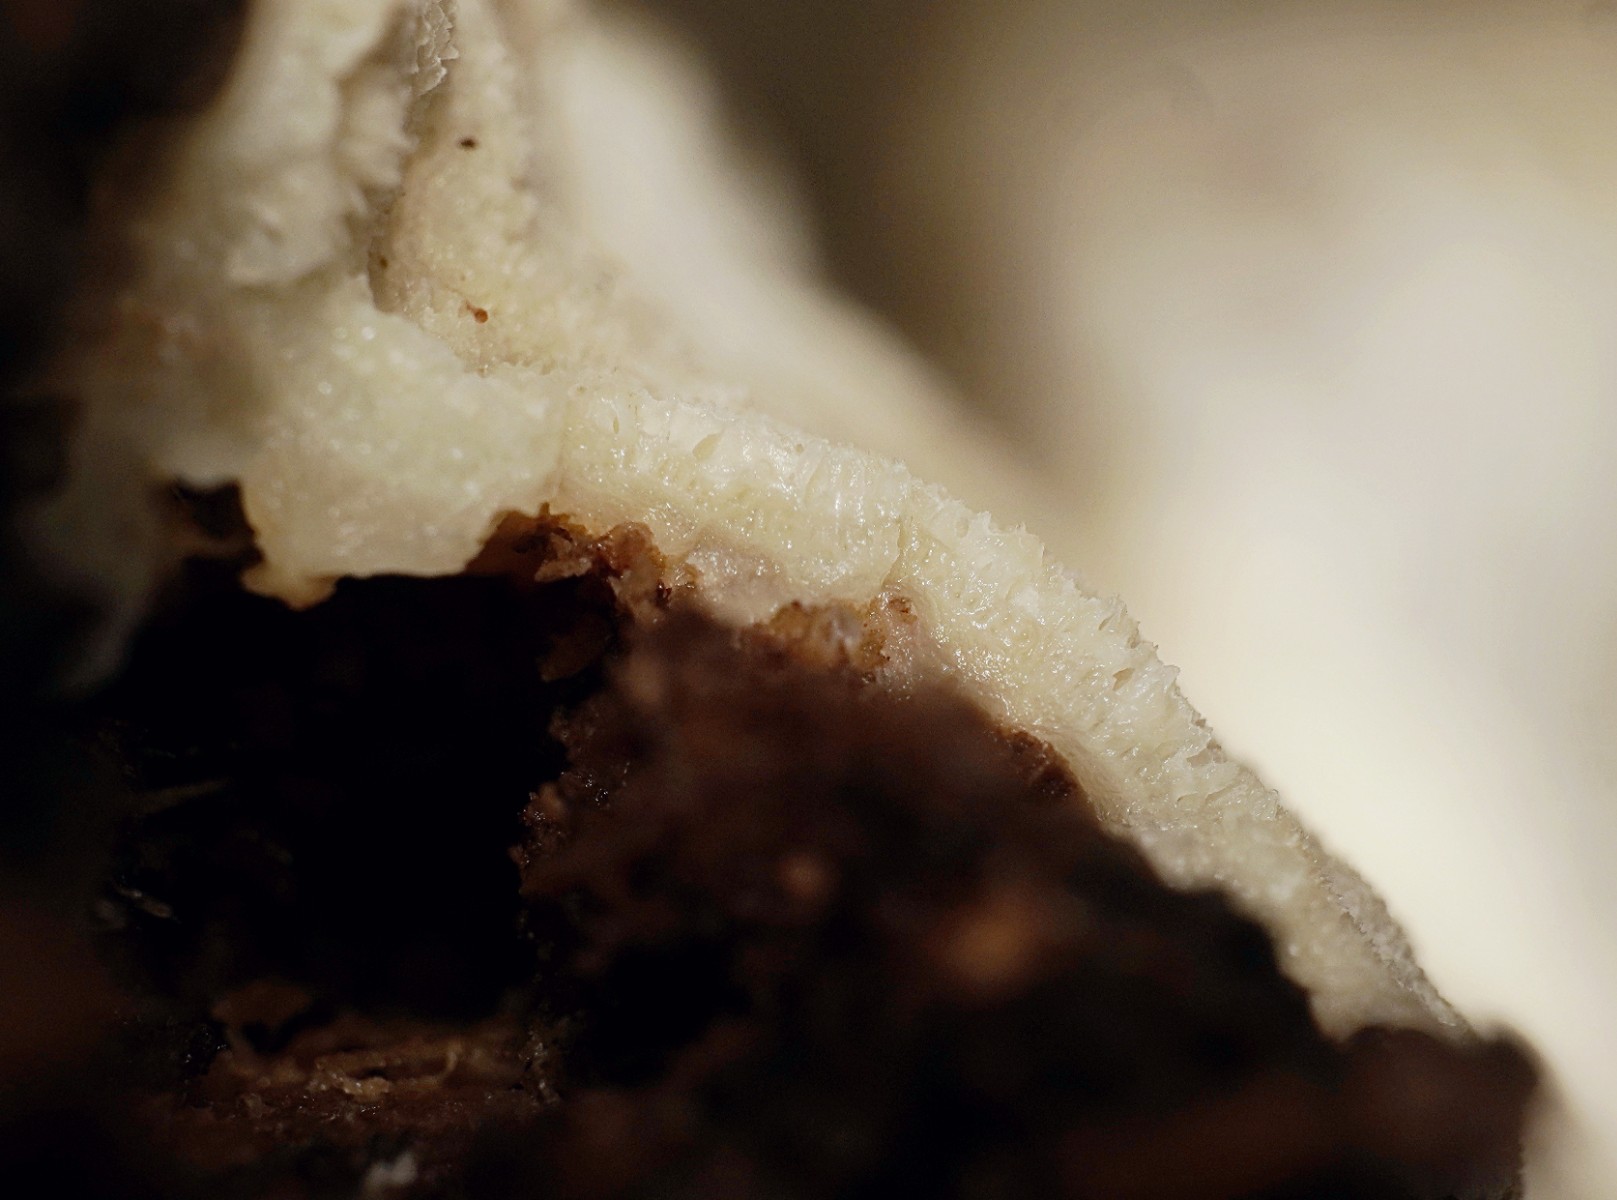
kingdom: Fungi
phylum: Basidiomycota
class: Agaricomycetes
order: Polyporales
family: Meruliaceae
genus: Physisporinus
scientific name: Physisporinus vitreus
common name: mastesvamp
